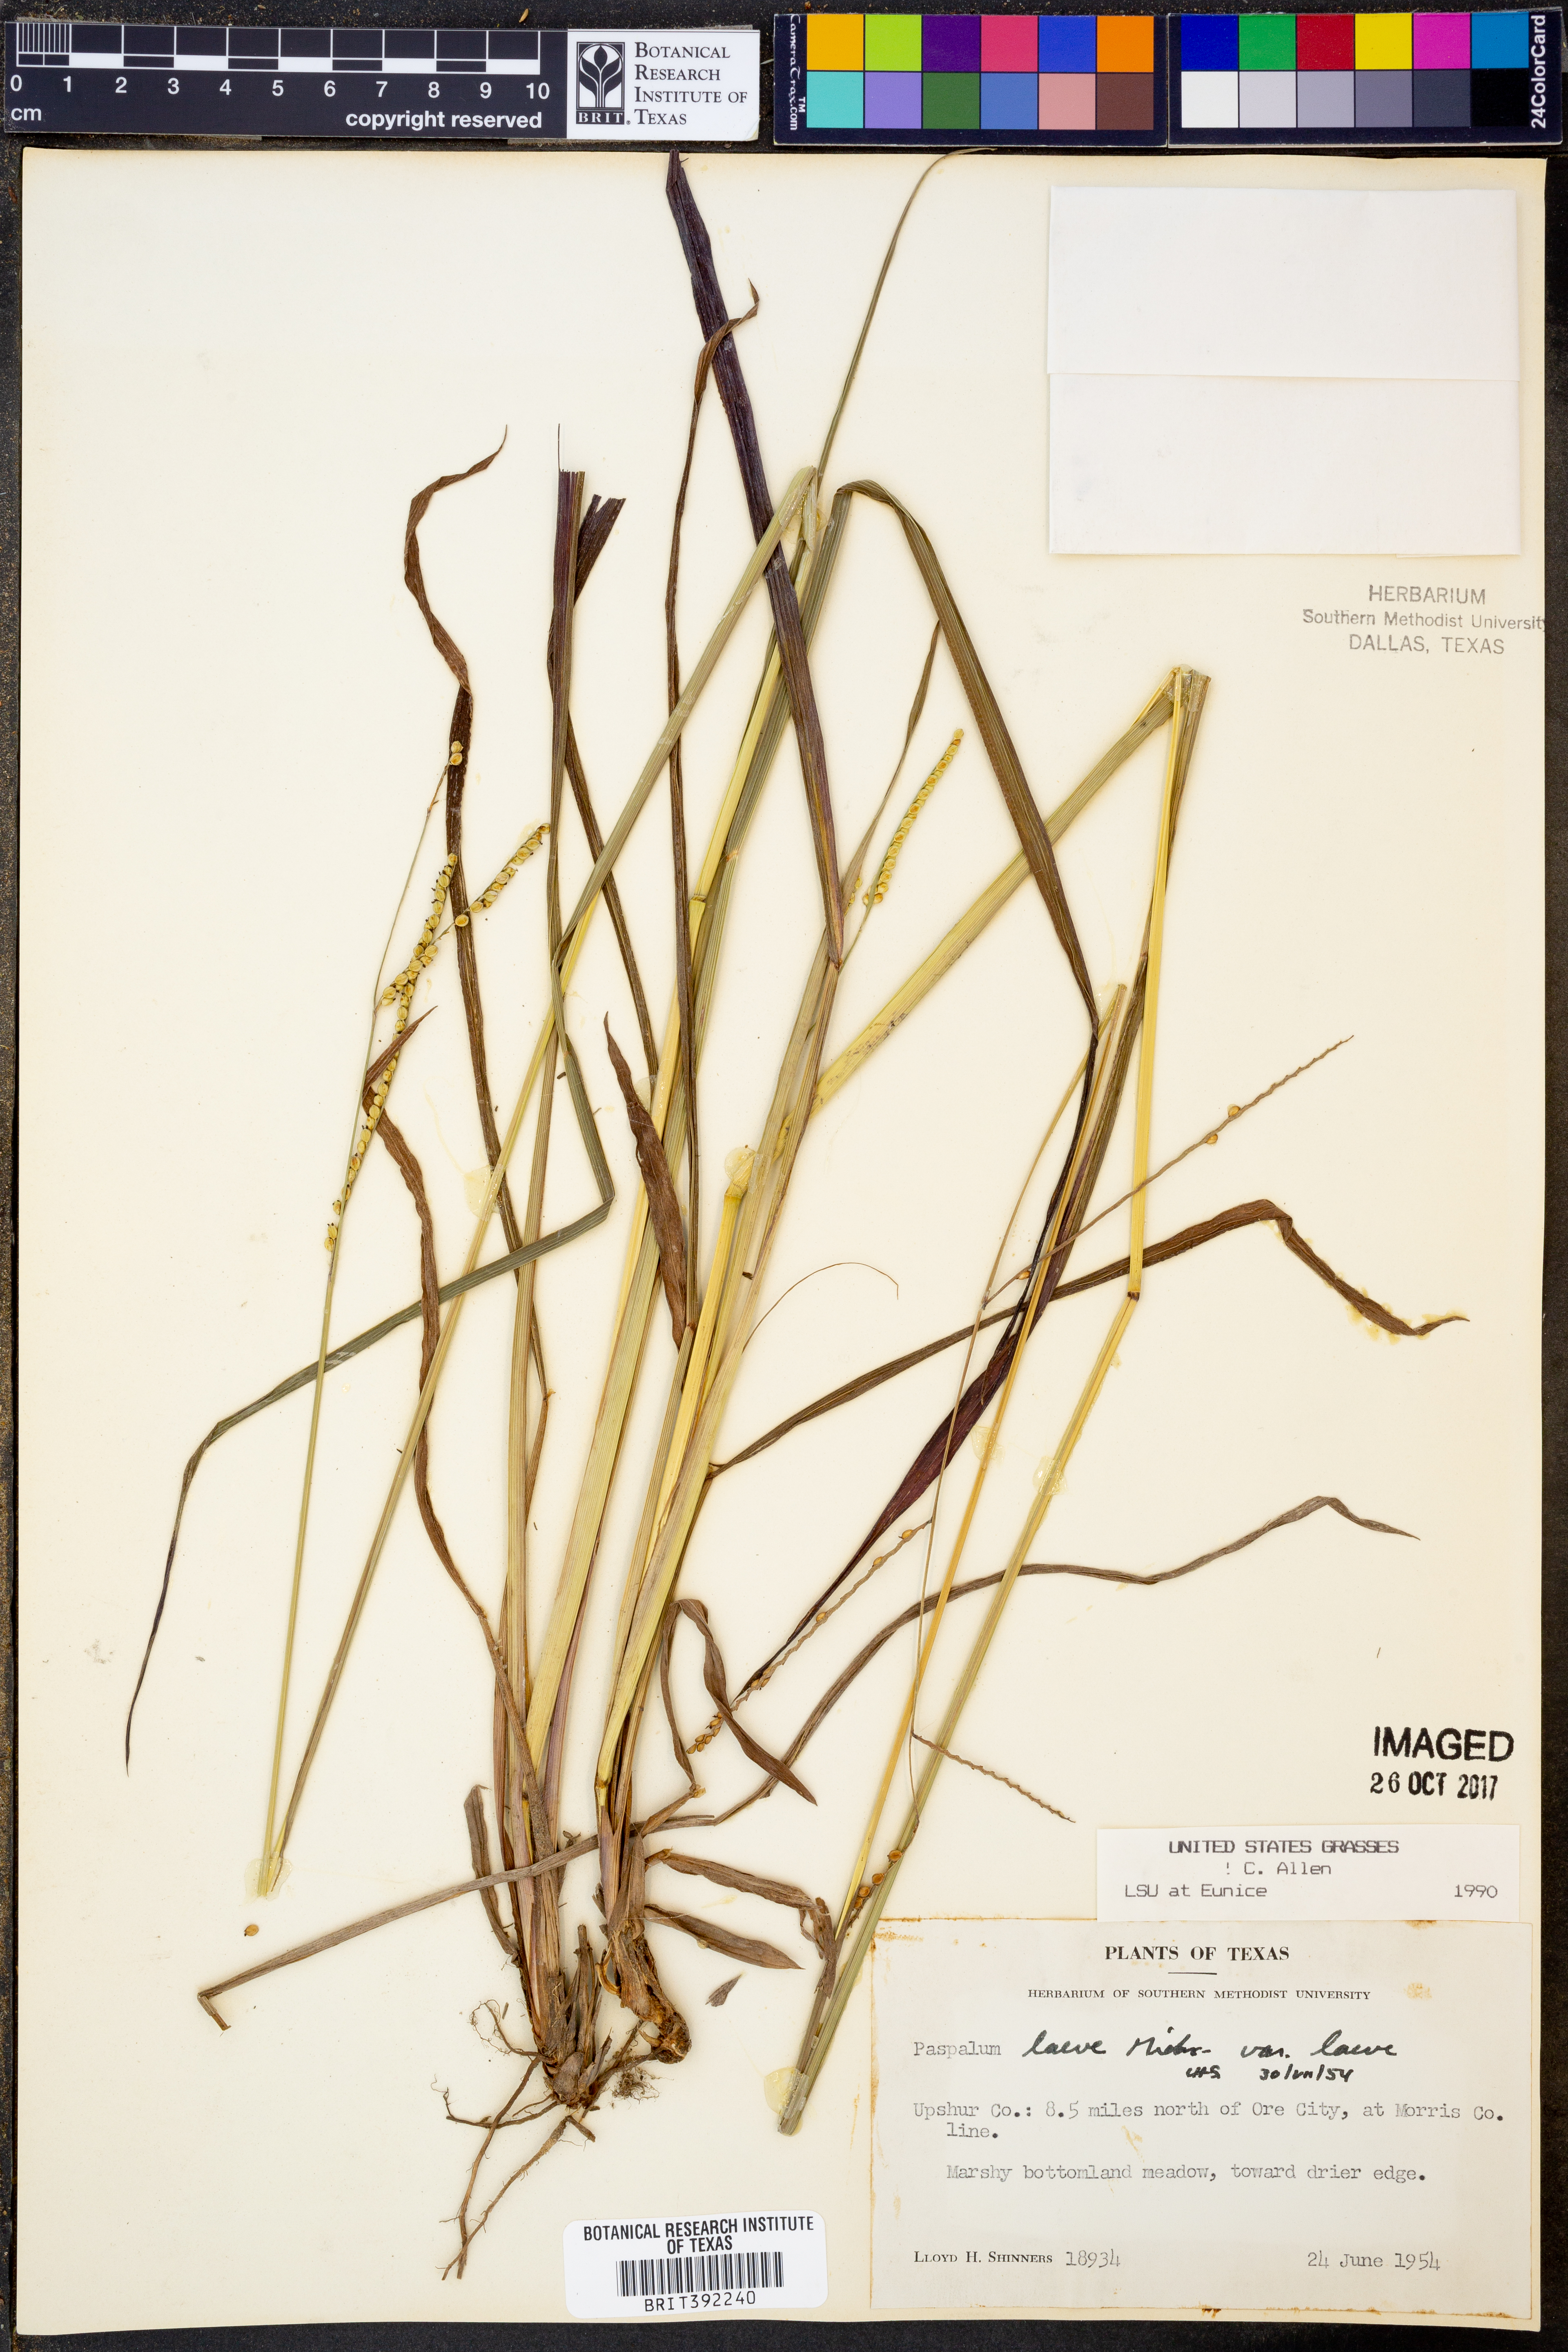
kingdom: Plantae
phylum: Tracheophyta
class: Liliopsida
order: Poales
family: Poaceae
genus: Paspalum
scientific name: Paspalum laeve
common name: Field paspalum
